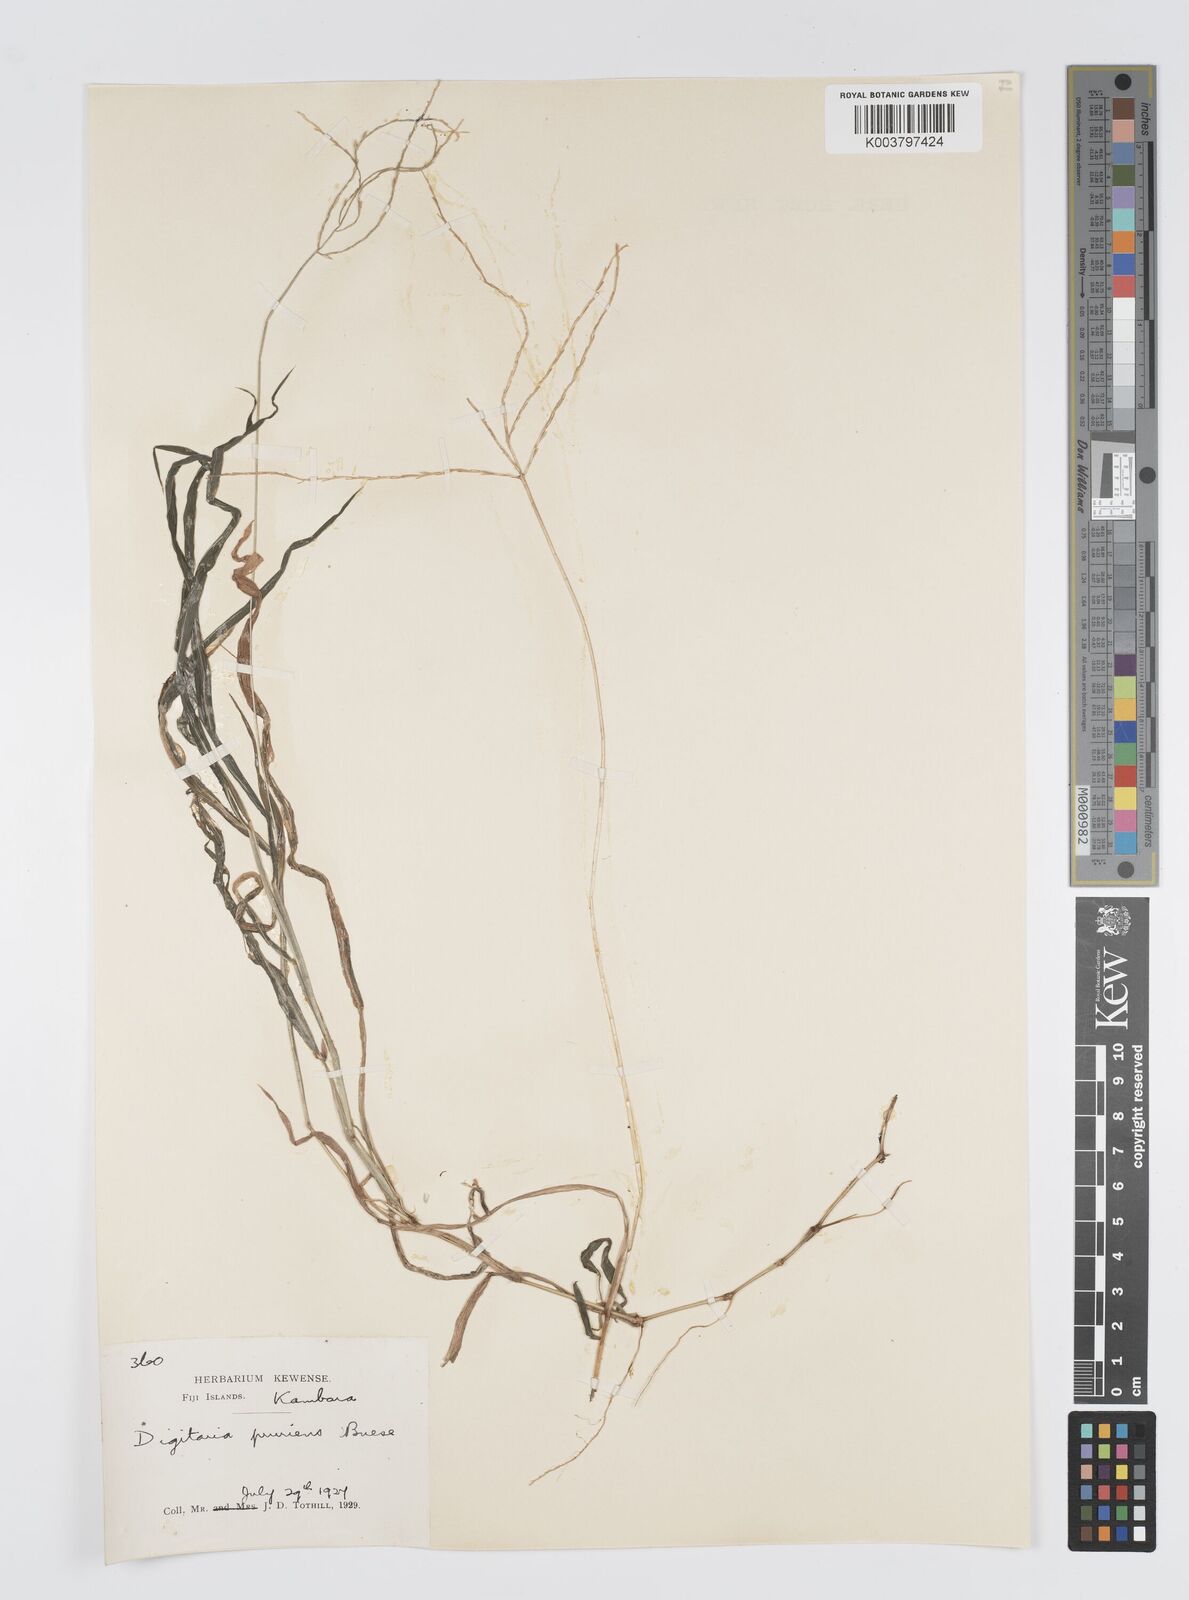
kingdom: Plantae
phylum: Tracheophyta
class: Liliopsida
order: Poales
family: Poaceae
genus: Digitaria
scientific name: Digitaria setigera
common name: East indian crabgrass
